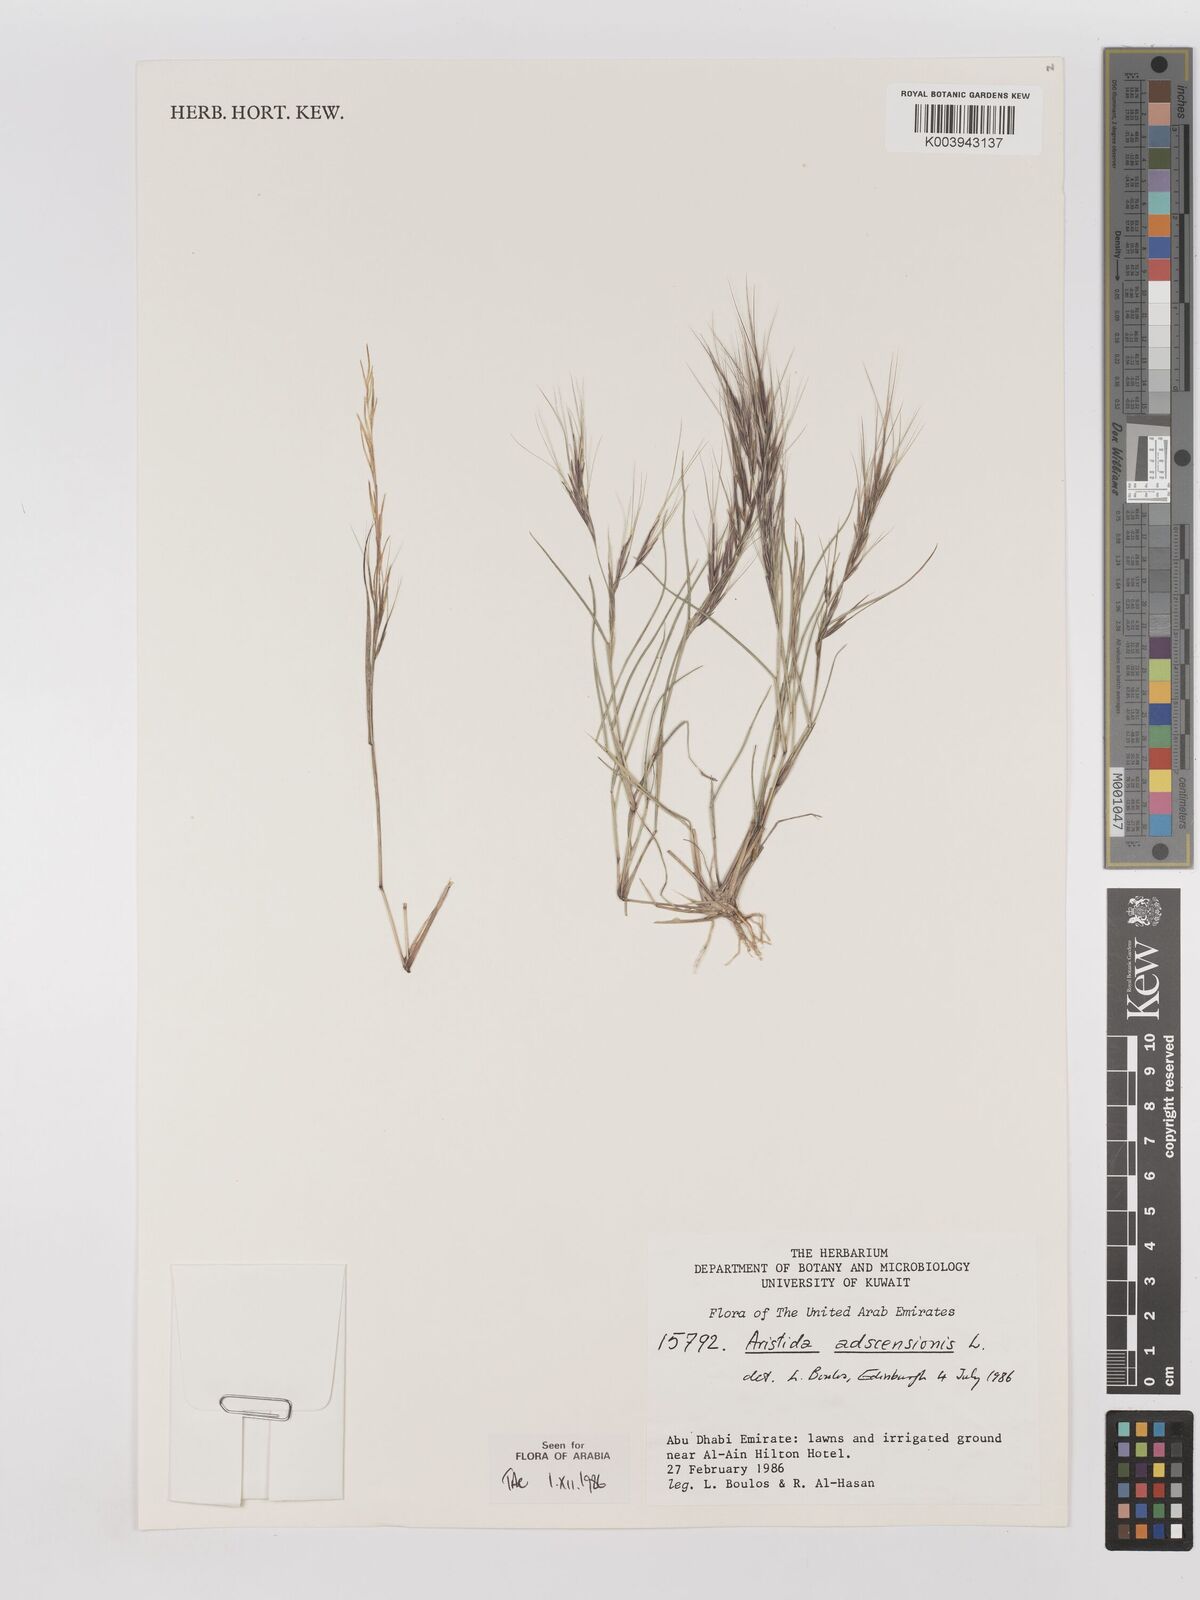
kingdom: Plantae
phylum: Tracheophyta
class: Liliopsida
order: Poales
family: Poaceae
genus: Aristida
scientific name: Aristida adscensionis
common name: Sixweeks threeawn
